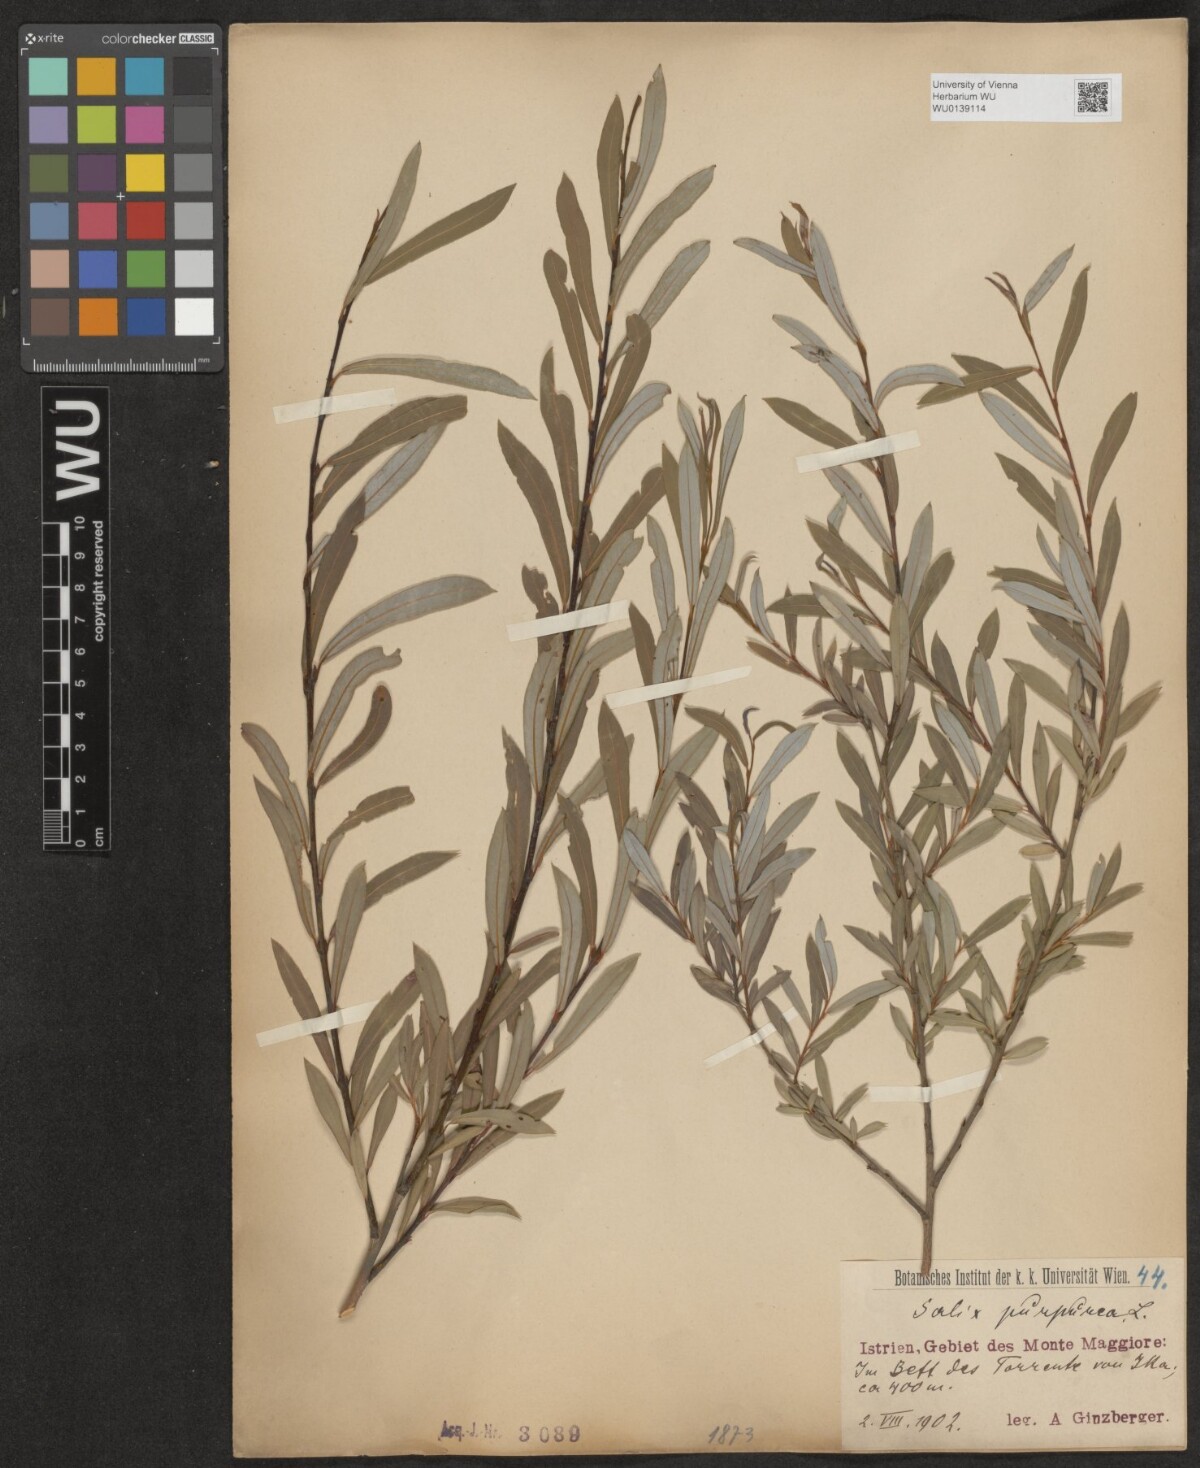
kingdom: Plantae
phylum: Tracheophyta
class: Magnoliopsida
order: Malpighiales
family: Salicaceae
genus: Salix
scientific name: Salix purpurea
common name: Purple willow
